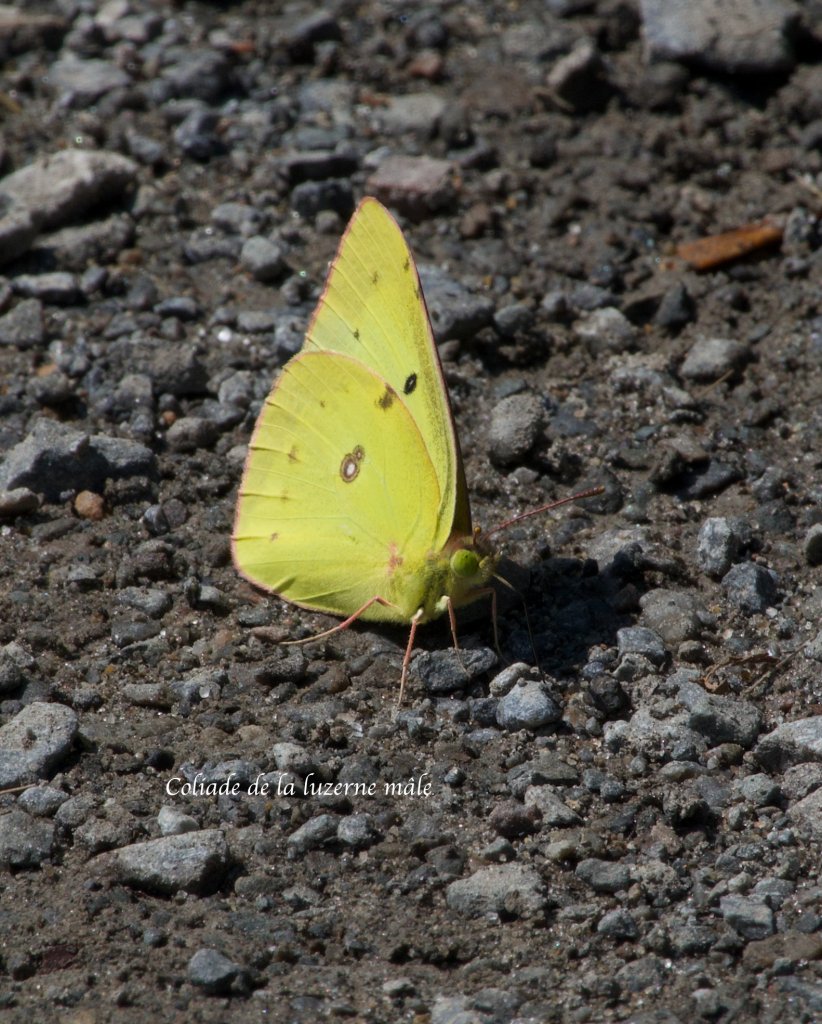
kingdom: Animalia
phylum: Arthropoda
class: Insecta
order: Lepidoptera
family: Pieridae
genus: Colias
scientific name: Colias eurytheme
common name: Orange Sulphur
